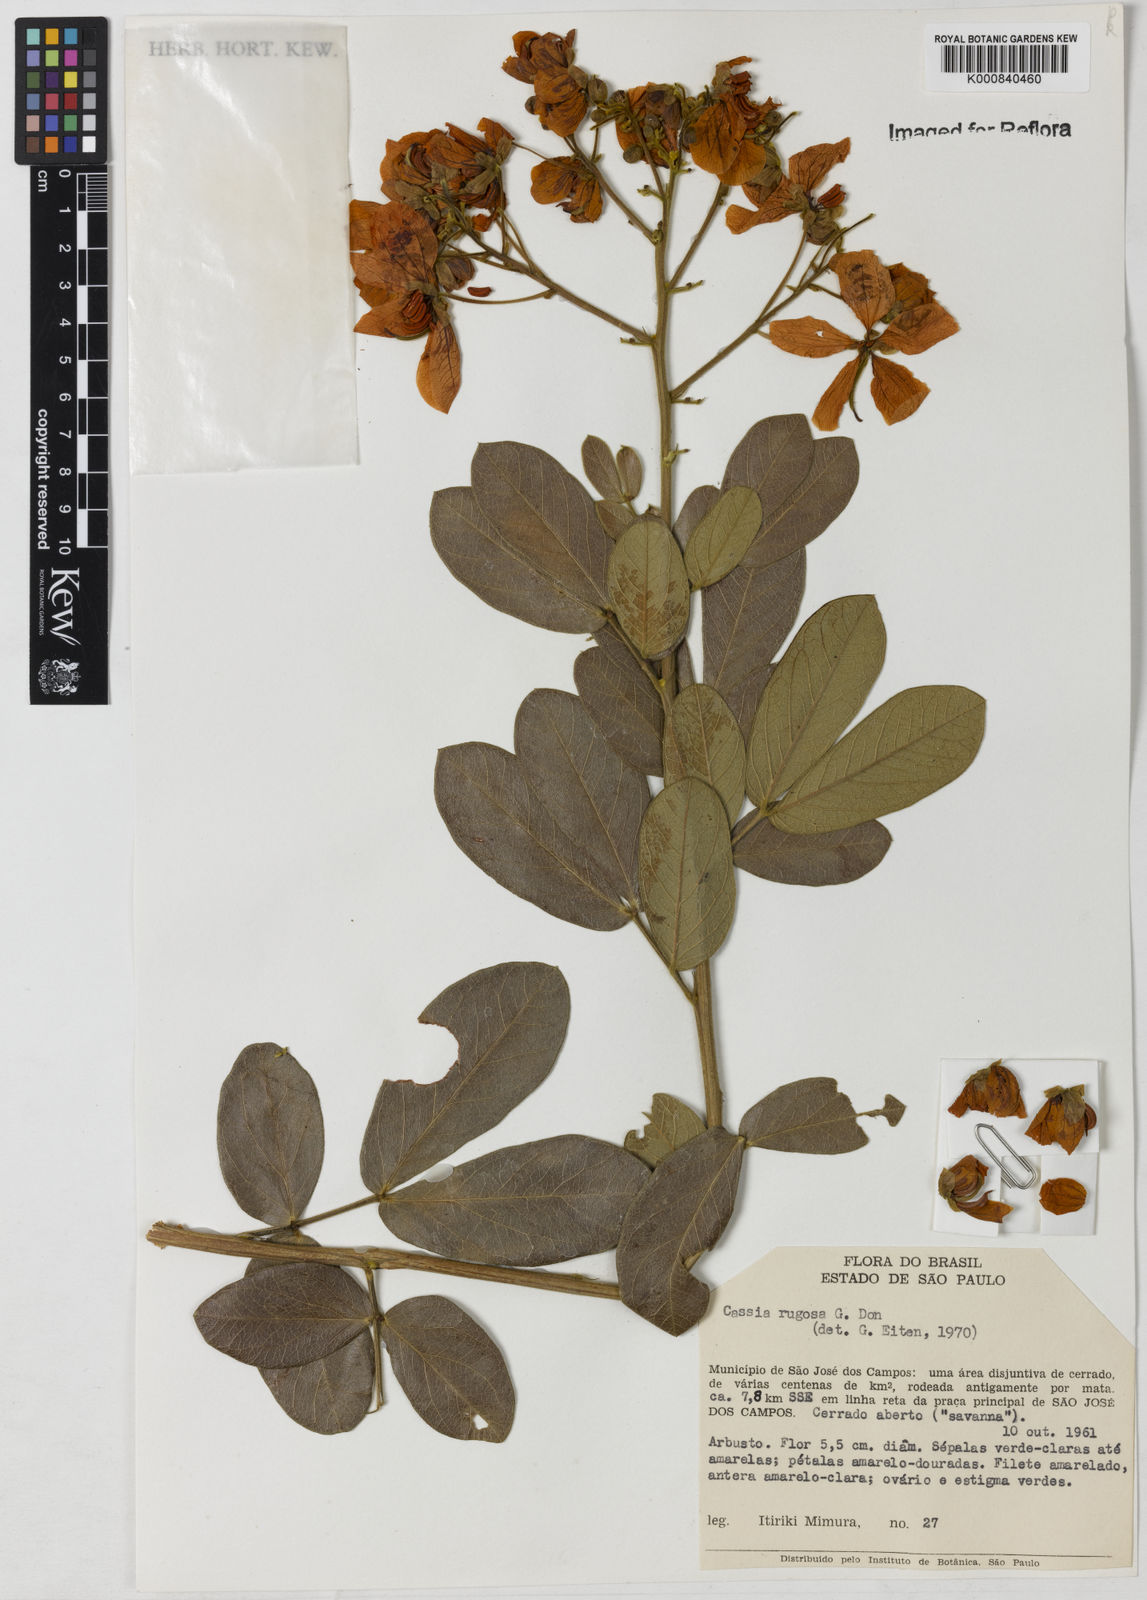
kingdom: Plantae
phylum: Tracheophyta
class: Magnoliopsida
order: Fabales
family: Fabaceae
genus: Senna
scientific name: Senna rugosa
